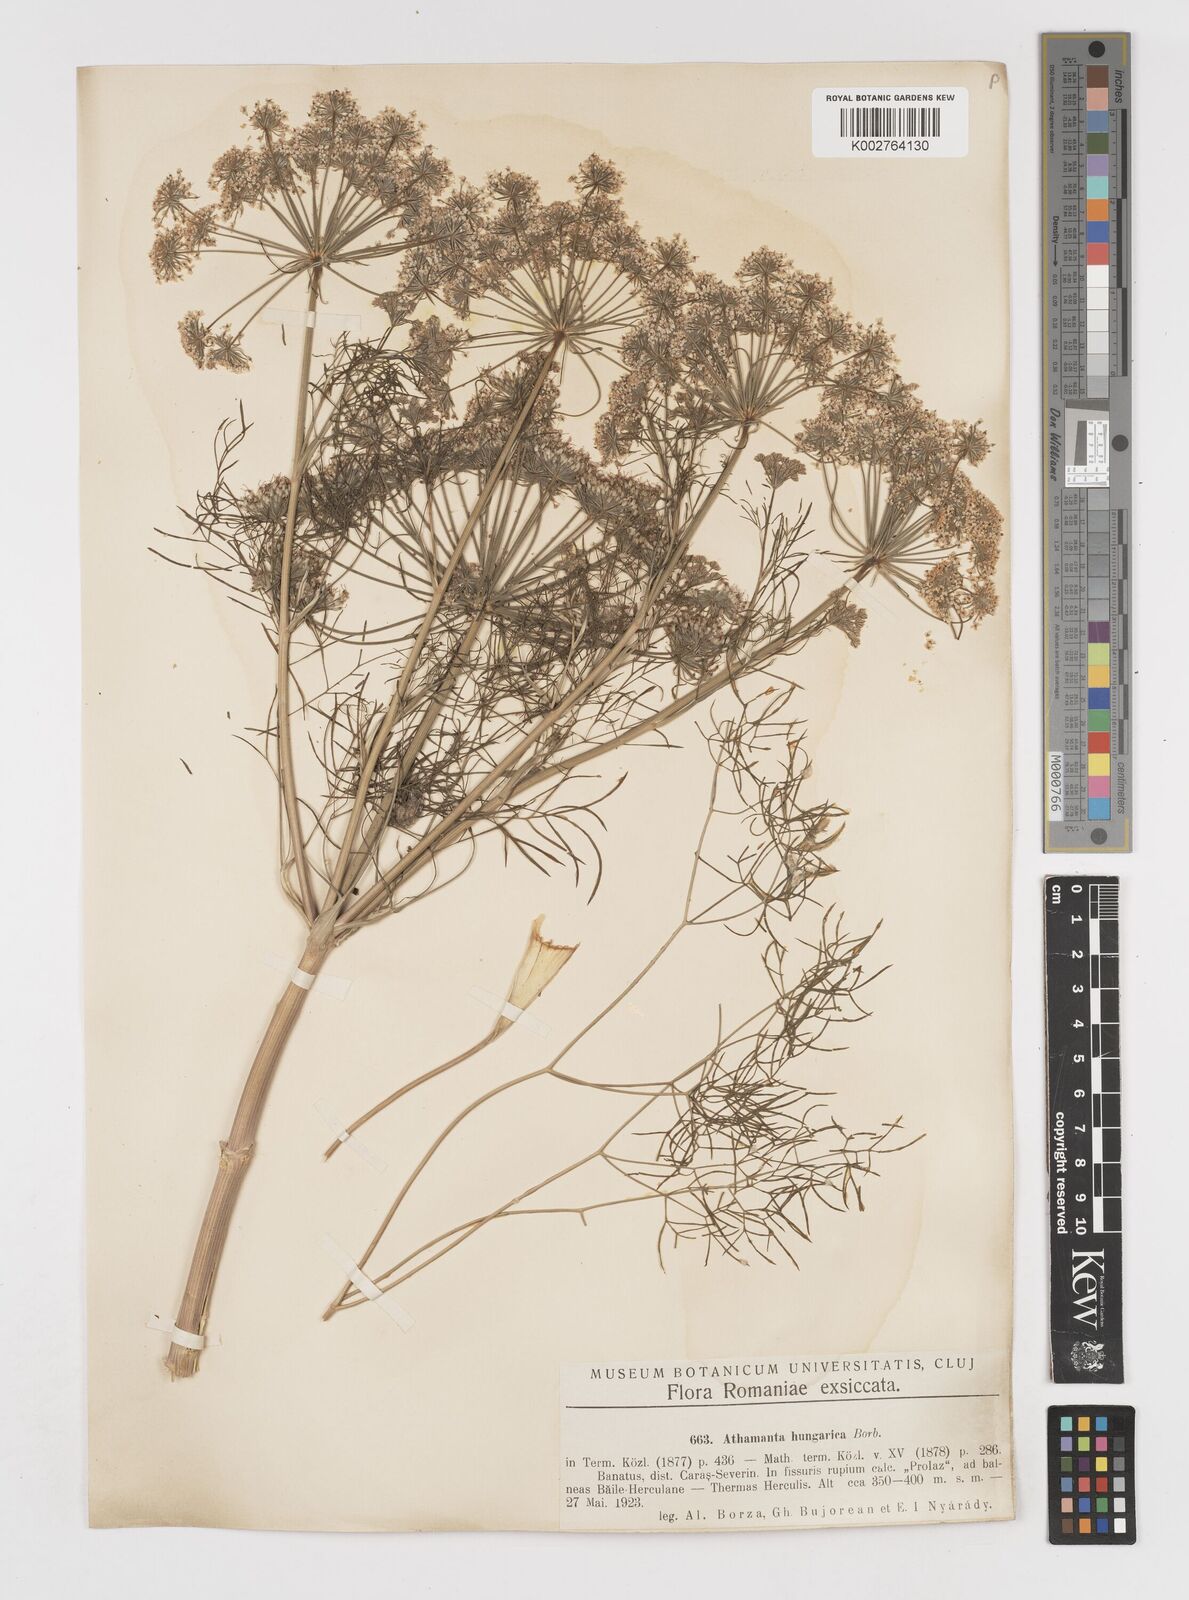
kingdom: Plantae
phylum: Tracheophyta
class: Magnoliopsida
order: Apiales
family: Apiaceae
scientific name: Apiaceae
